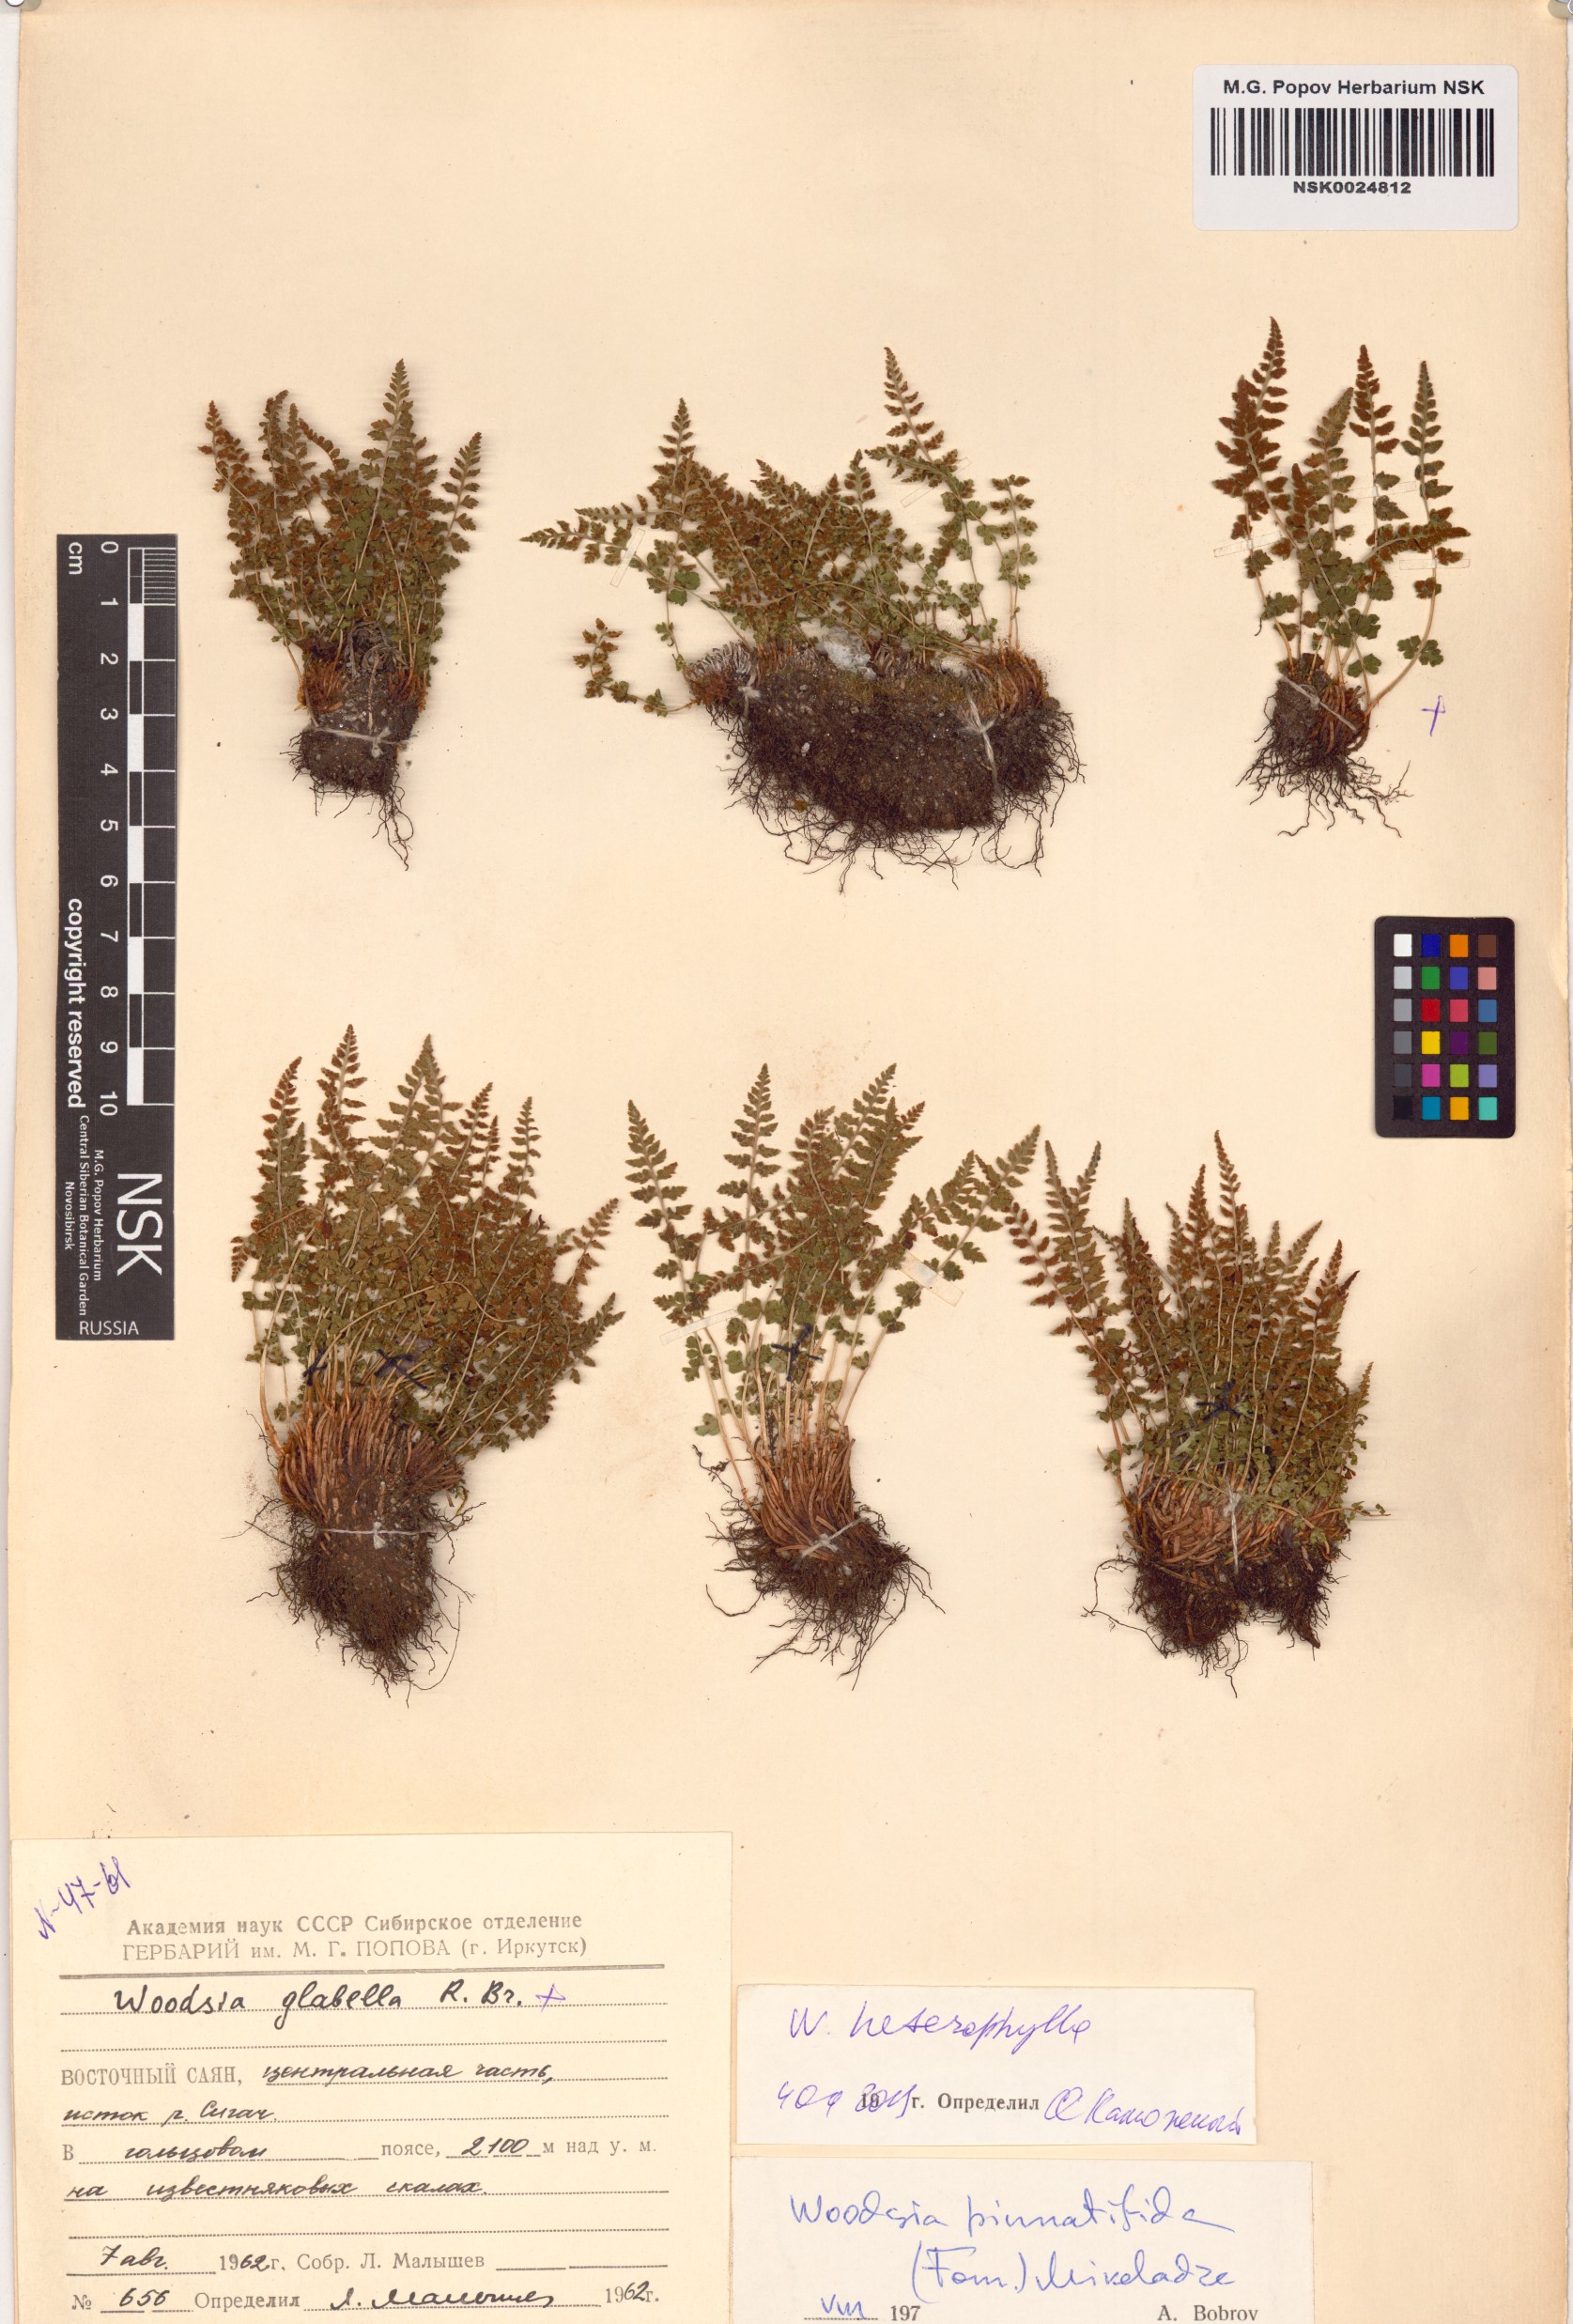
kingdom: Plantae
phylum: Tracheophyta
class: Polypodiopsida
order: Polypodiales
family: Woodsiaceae
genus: Woodsia
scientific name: Woodsia pulchella
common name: Graceful woodsia
